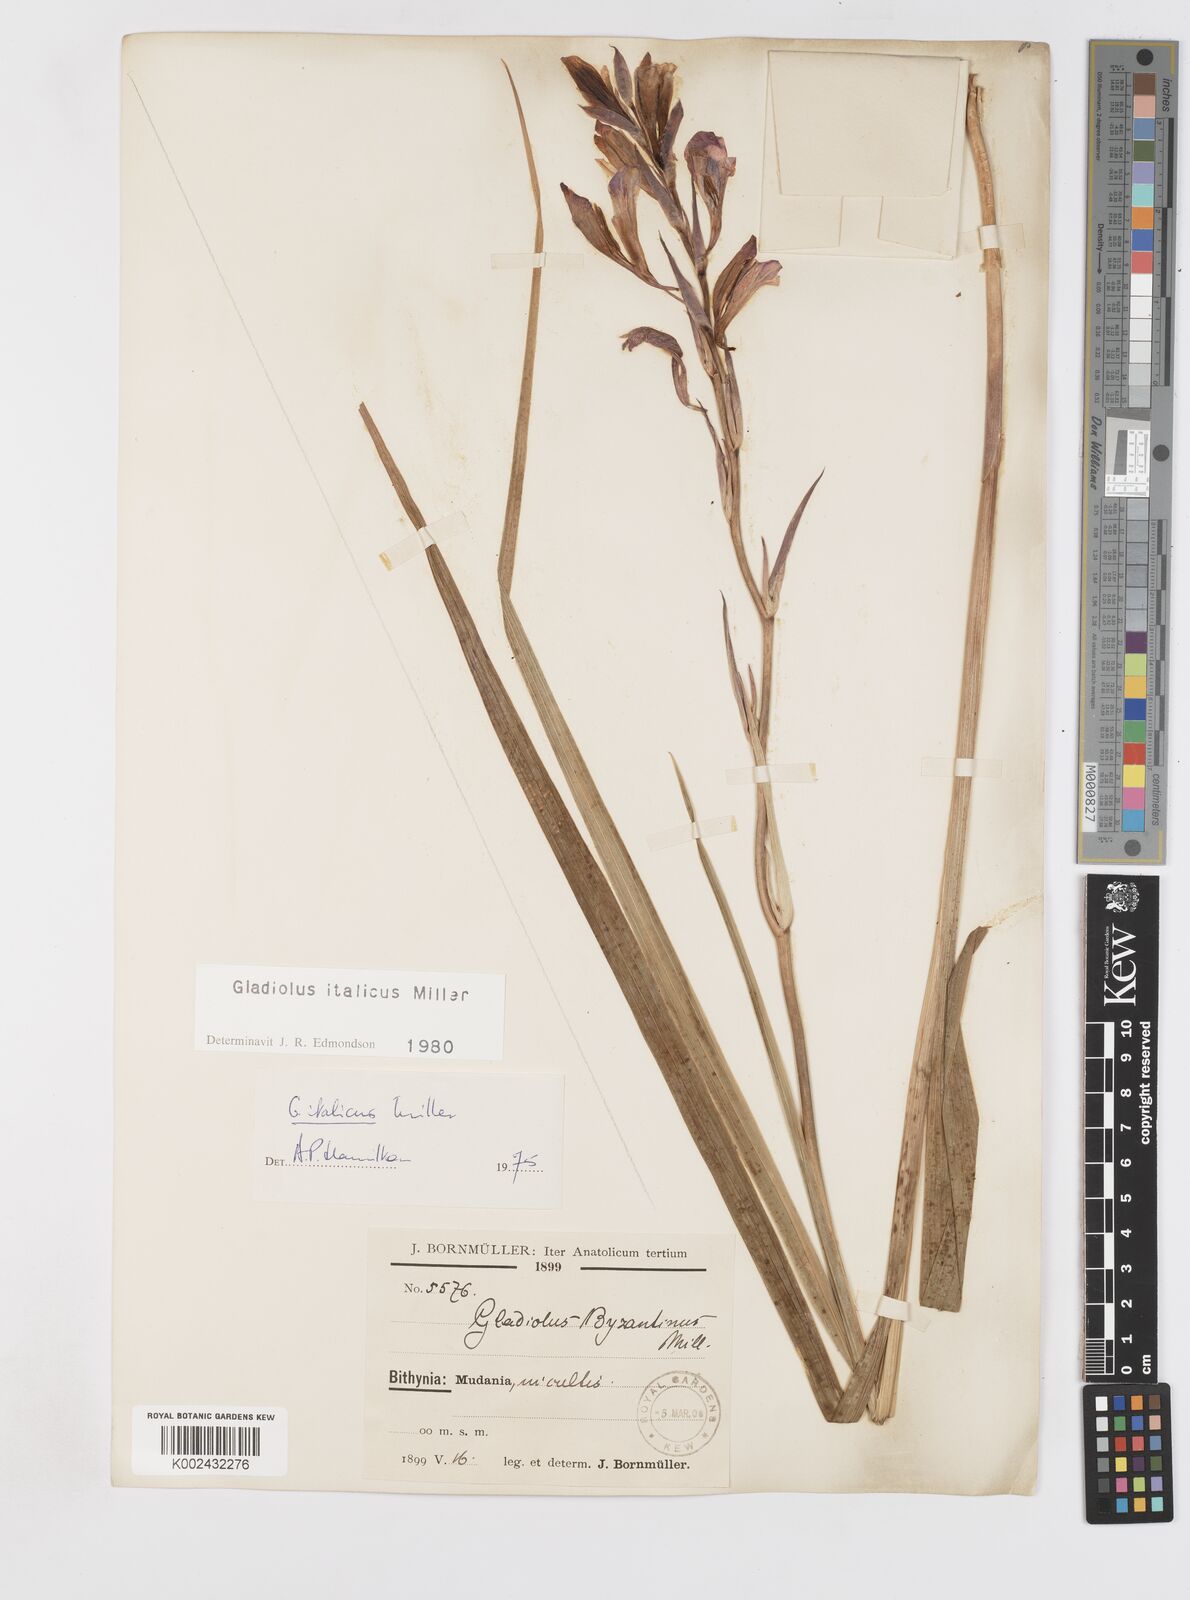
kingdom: Plantae
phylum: Tracheophyta
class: Liliopsida
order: Asparagales
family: Iridaceae
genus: Gladiolus
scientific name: Gladiolus italicus
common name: Field gladiolus
